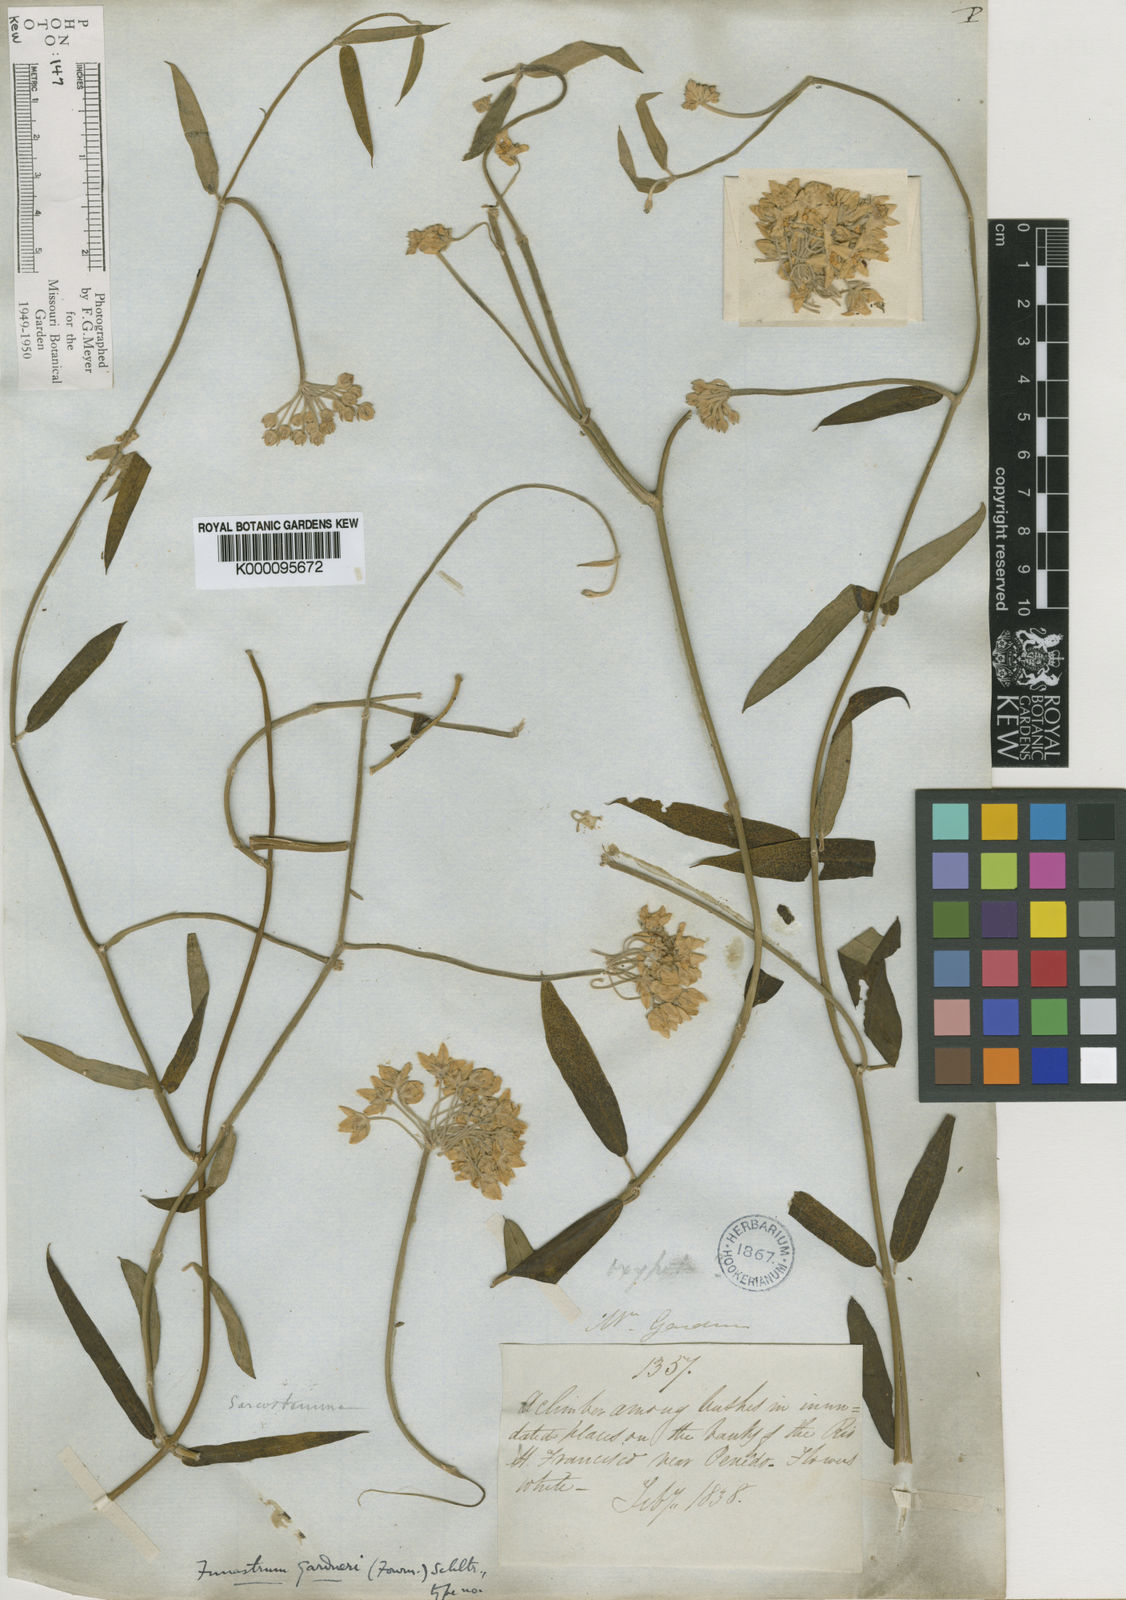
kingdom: Plantae
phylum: Tracheophyta
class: Magnoliopsida
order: Gentianales
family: Apocynaceae
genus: Funastrum
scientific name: Funastrum clausum
